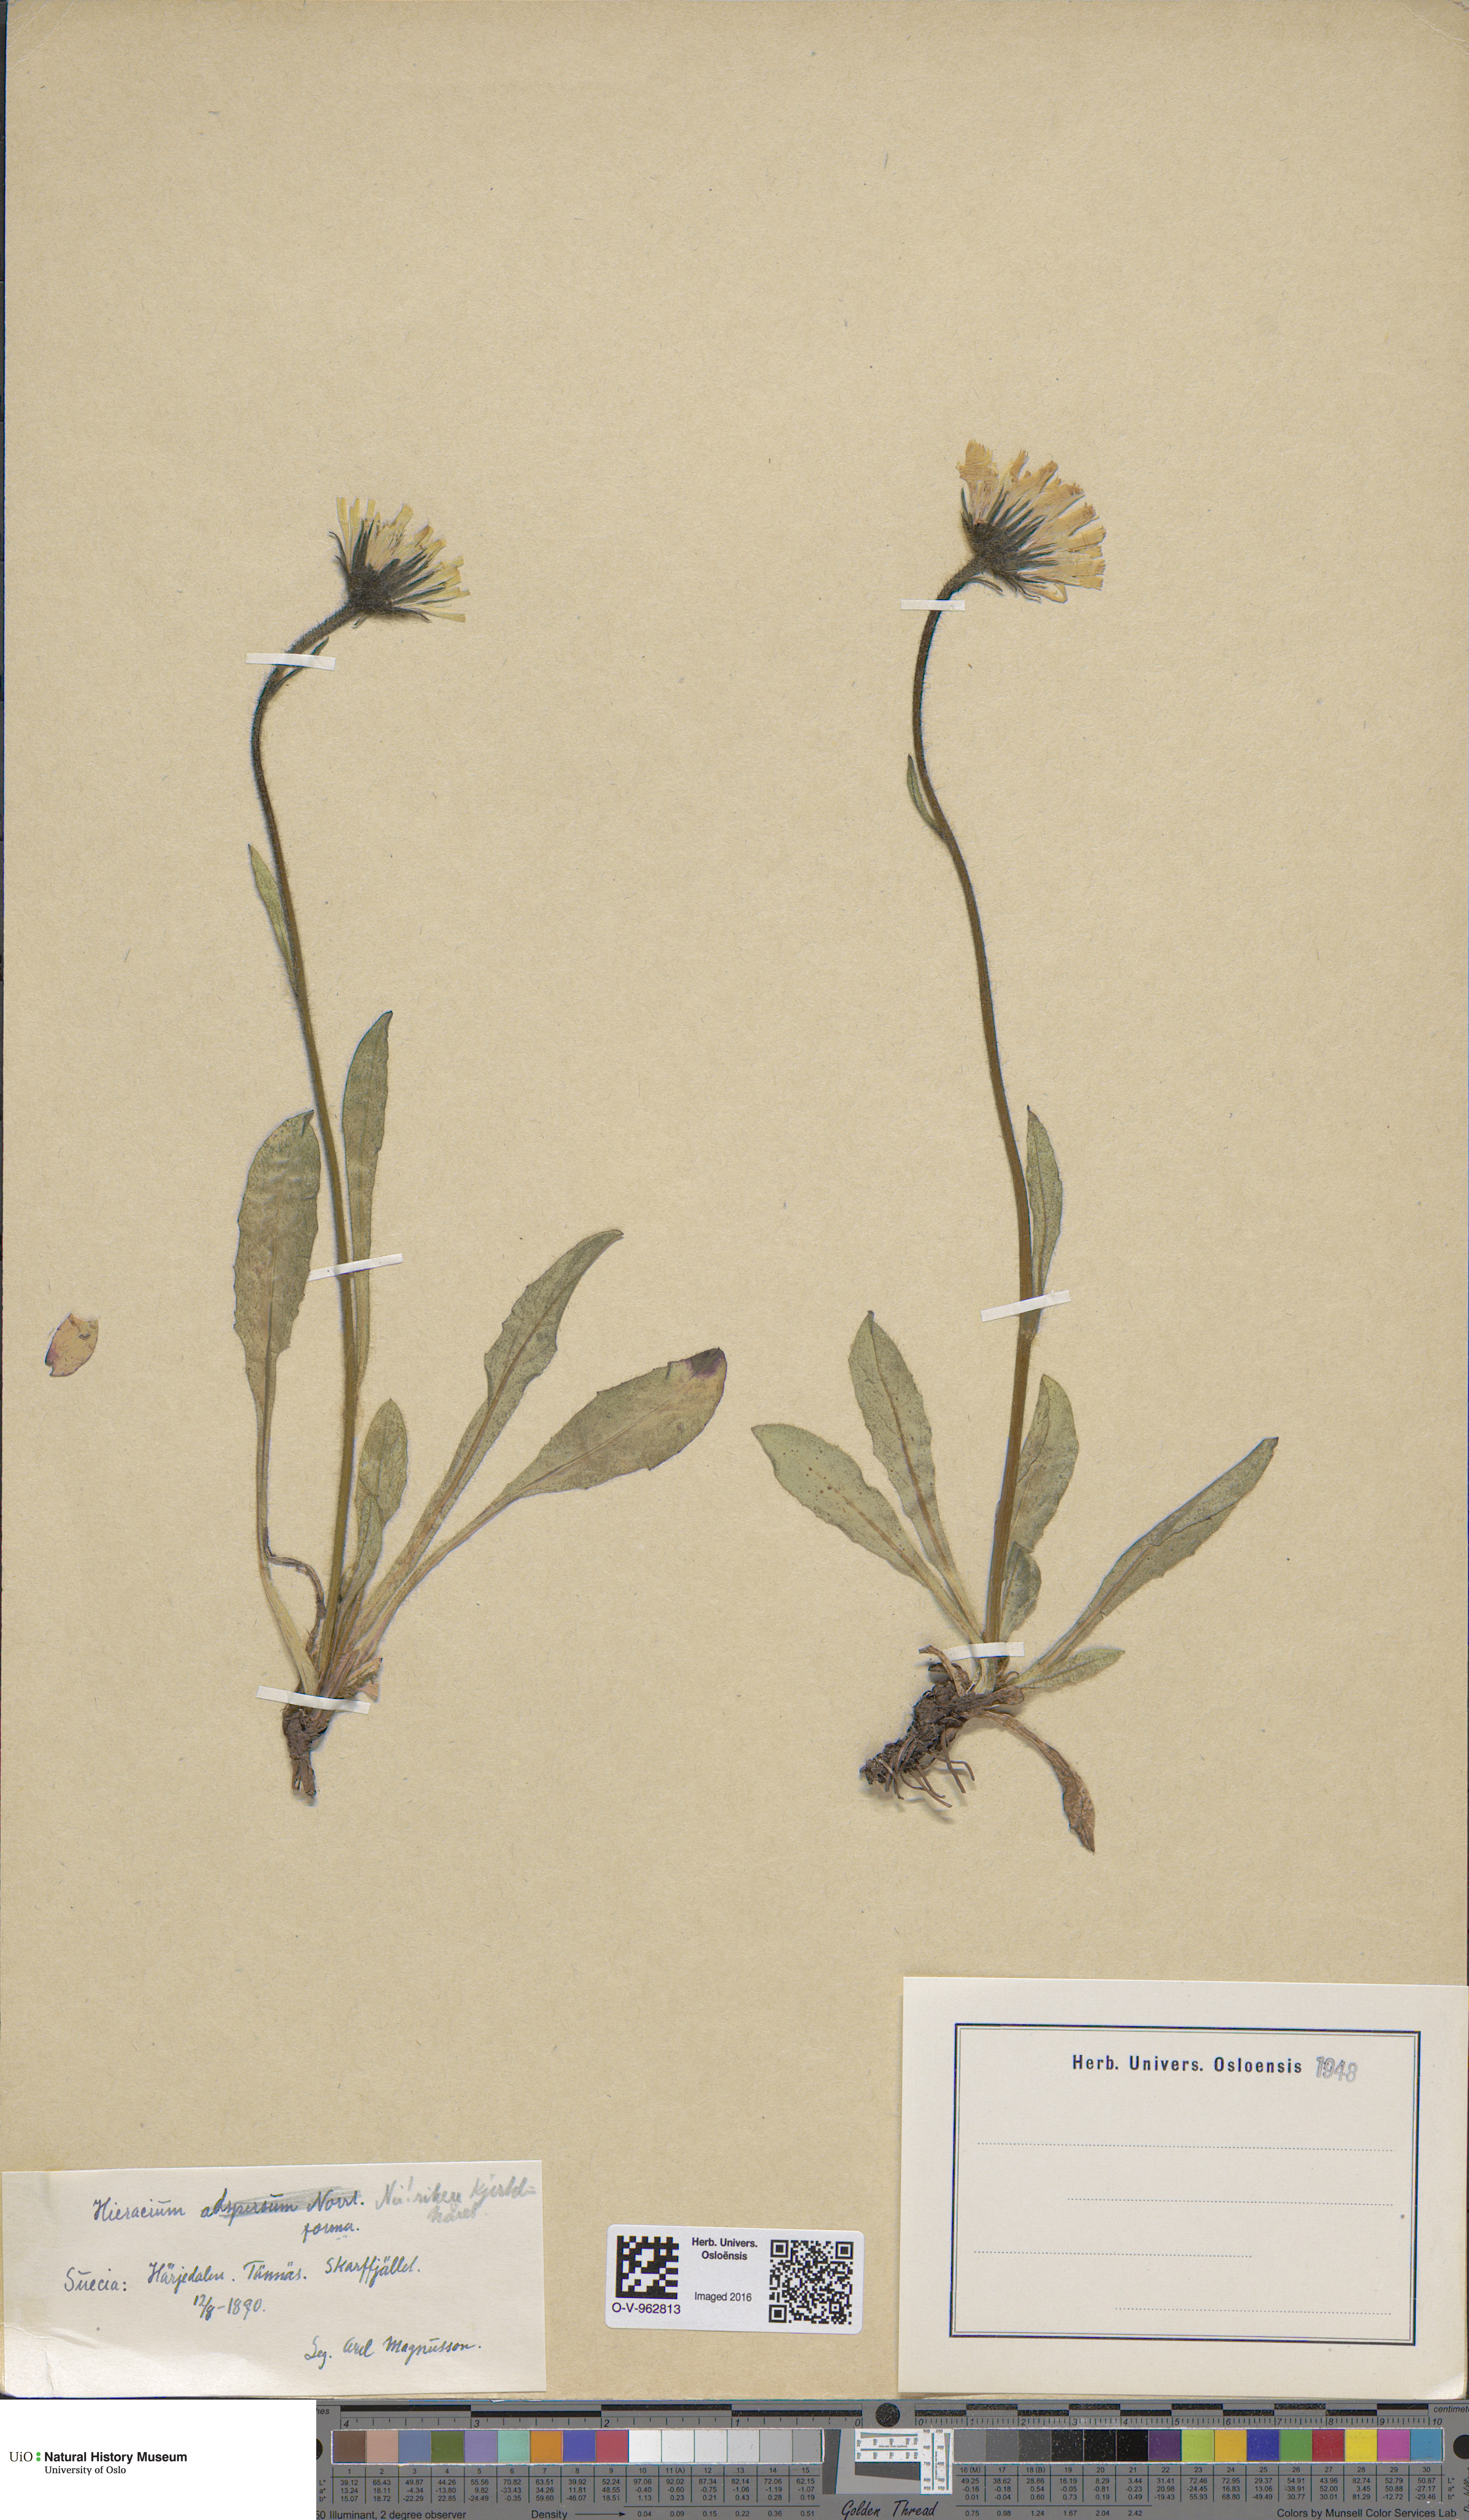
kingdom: Plantae
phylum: Tracheophyta
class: Magnoliopsida
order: Asterales
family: Asteraceae
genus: Hieracium
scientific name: Hieracium
